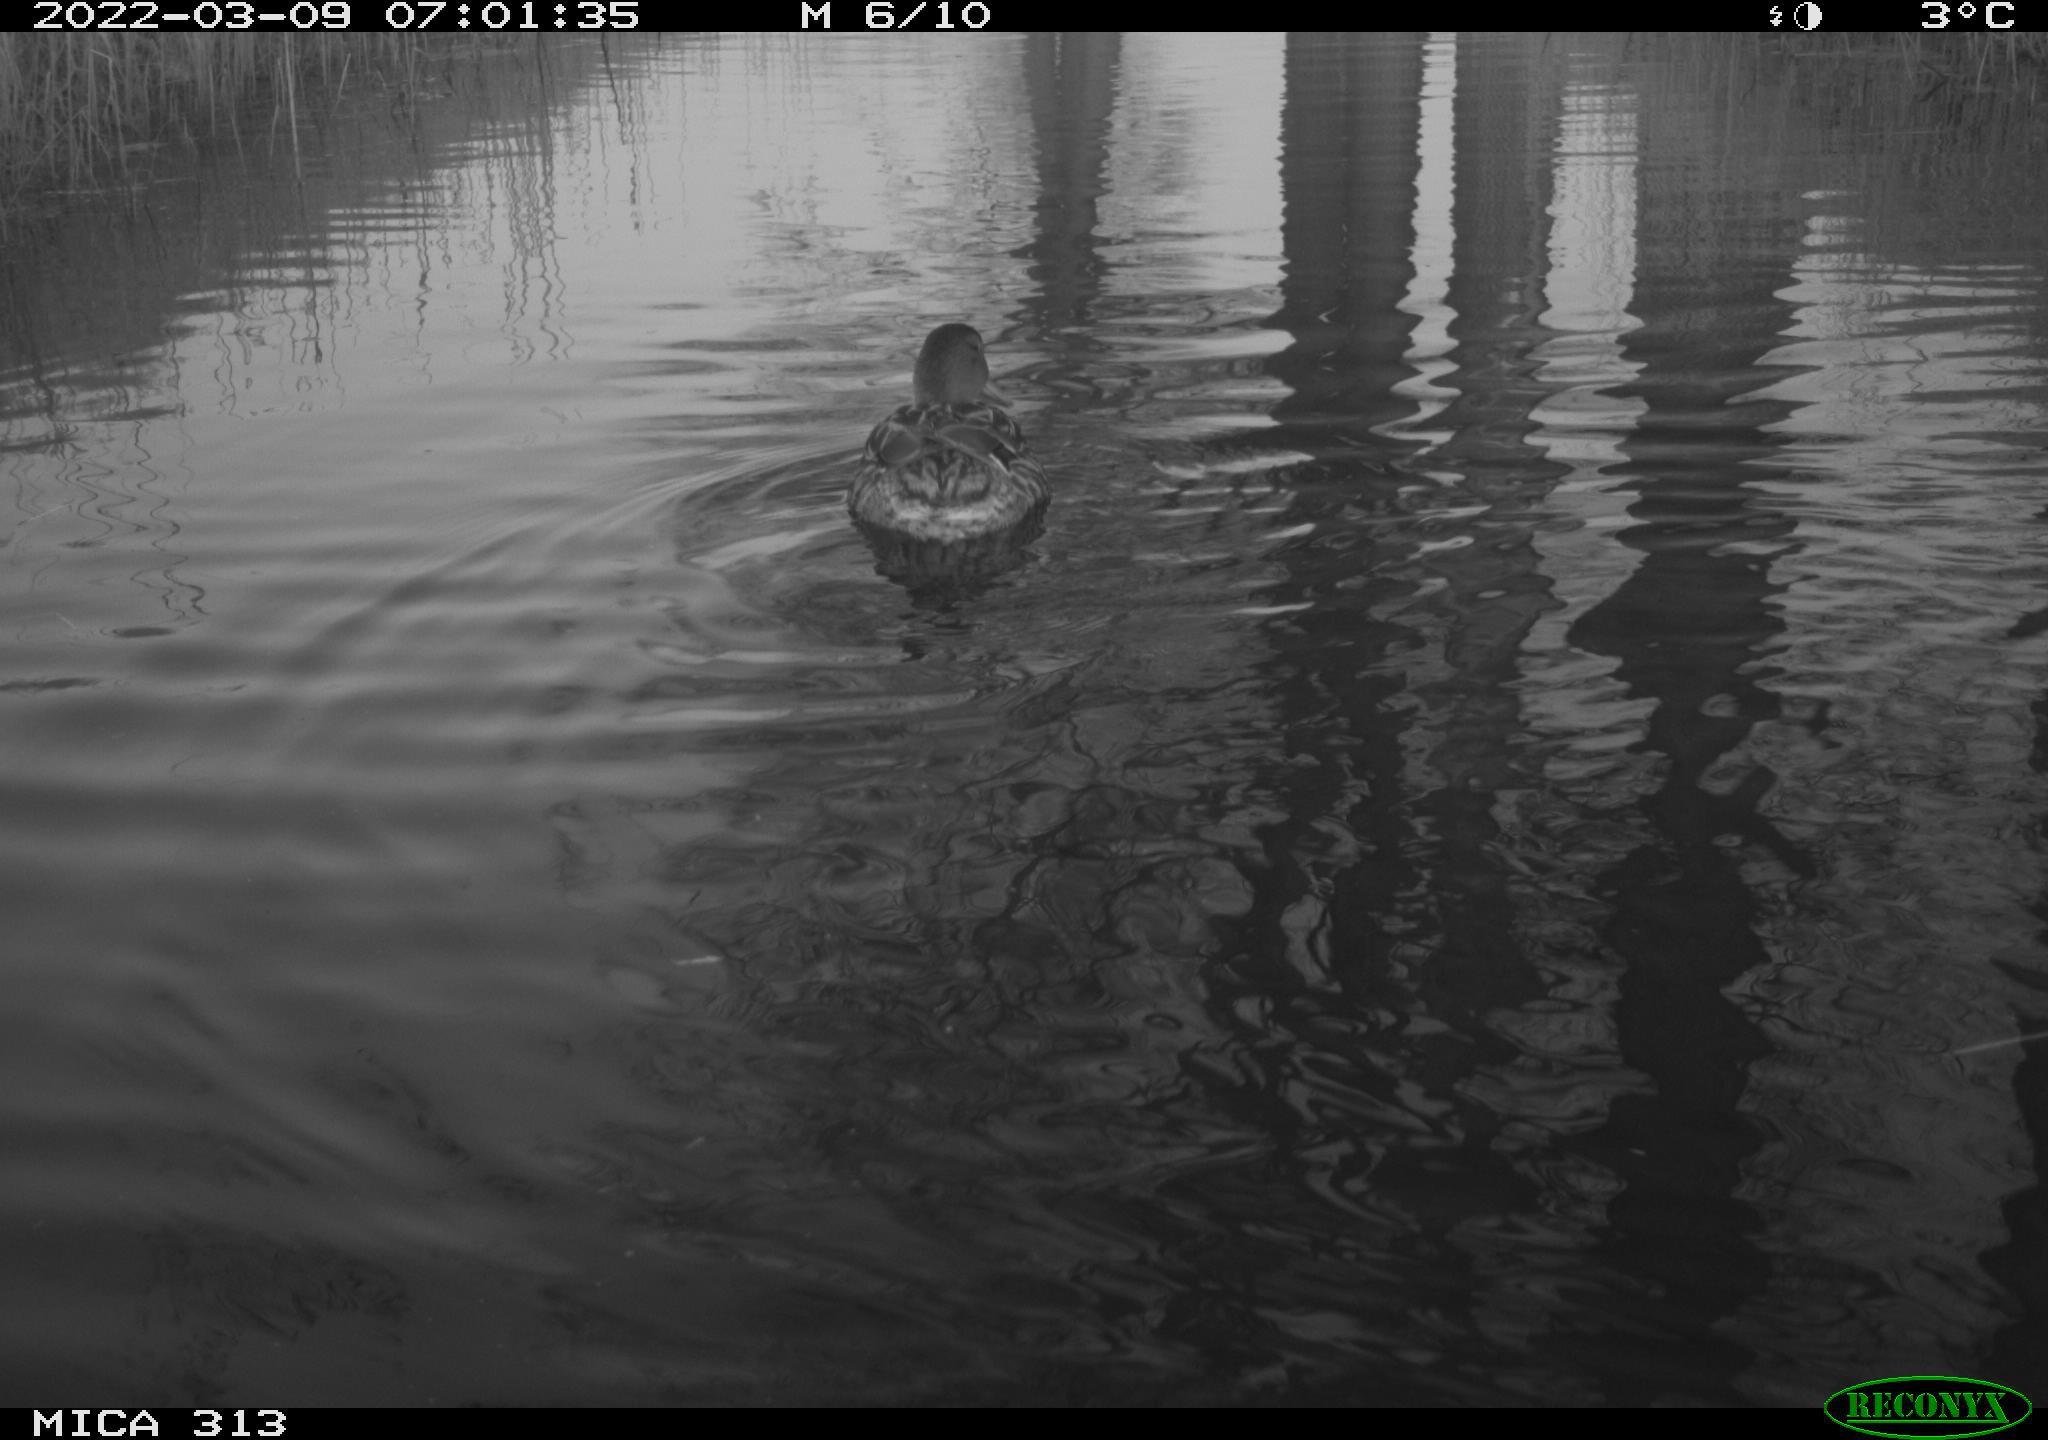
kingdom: Animalia
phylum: Chordata
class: Aves
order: Anseriformes
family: Anatidae
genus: Mareca
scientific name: Mareca strepera
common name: Gadwall
